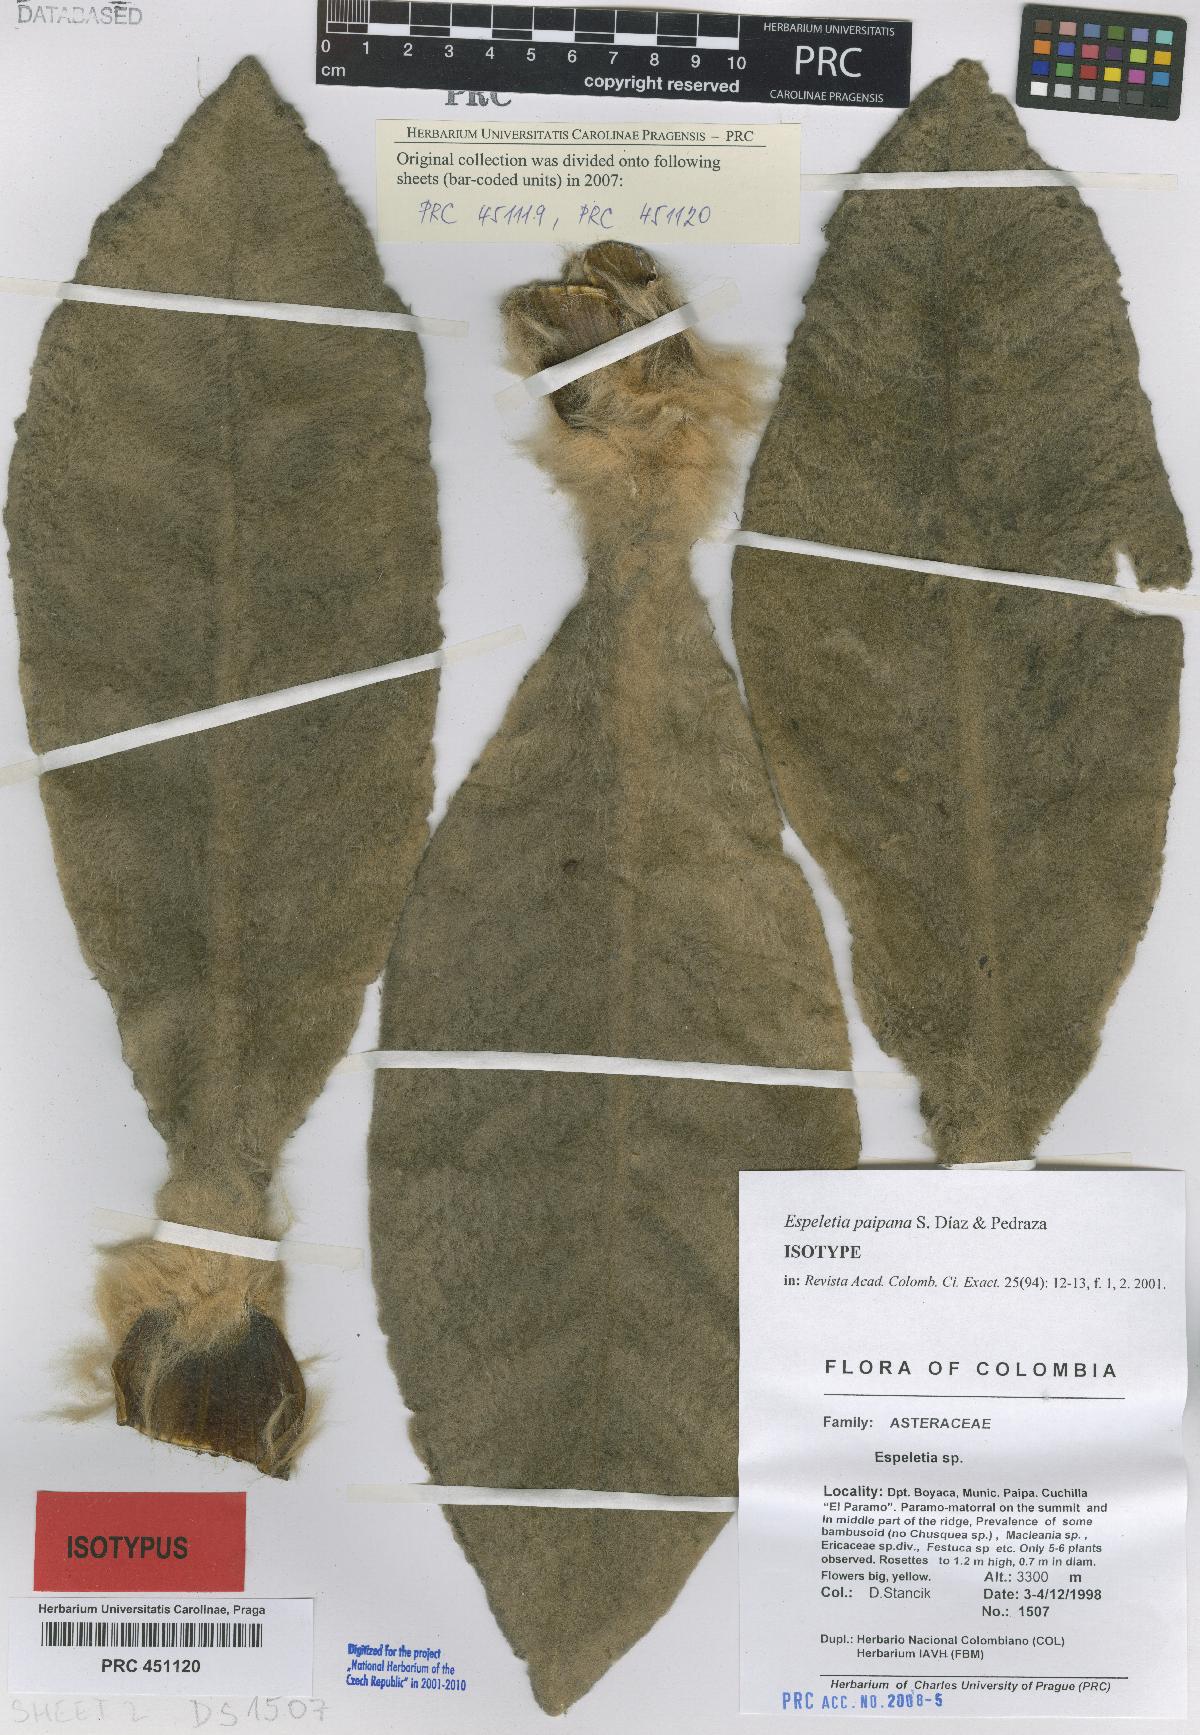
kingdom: Plantae
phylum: Tracheophyta
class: Magnoliopsida
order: Asterales
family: Asteraceae
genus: Espeletia
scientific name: Espeletia paipana
